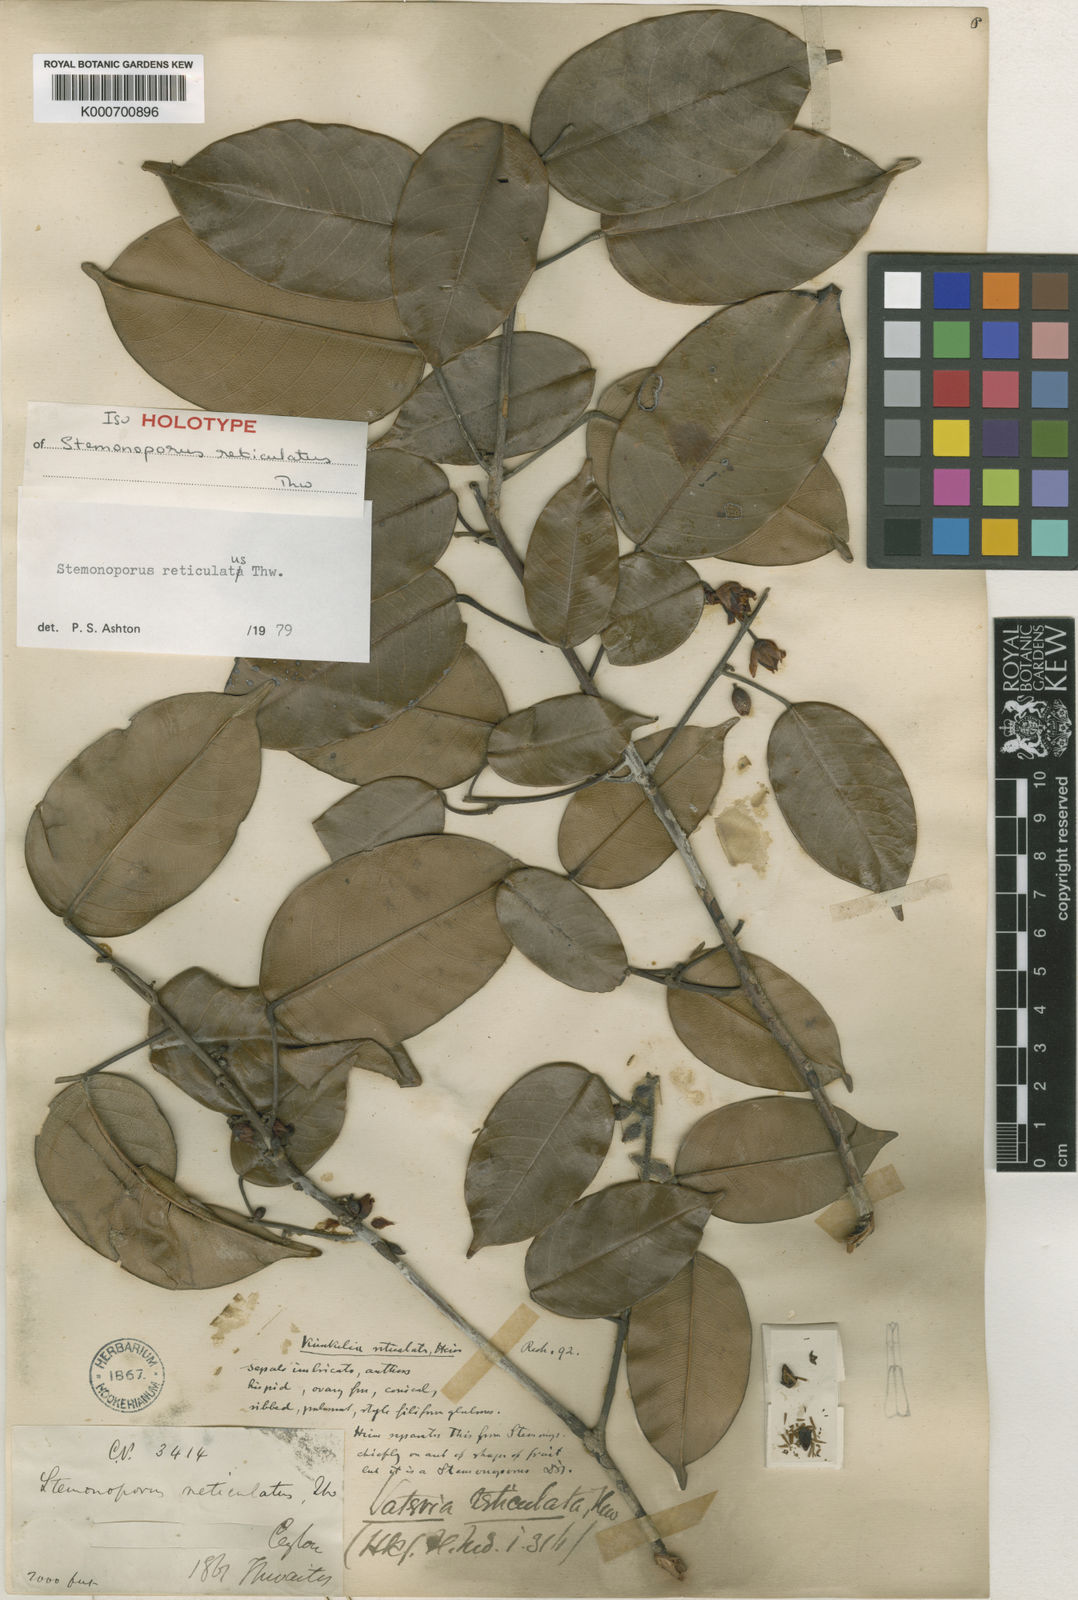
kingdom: Plantae
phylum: Tracheophyta
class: Magnoliopsida
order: Malvales
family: Dipterocarpaceae
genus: Stemonoporus
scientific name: Stemonoporus reticulatus
